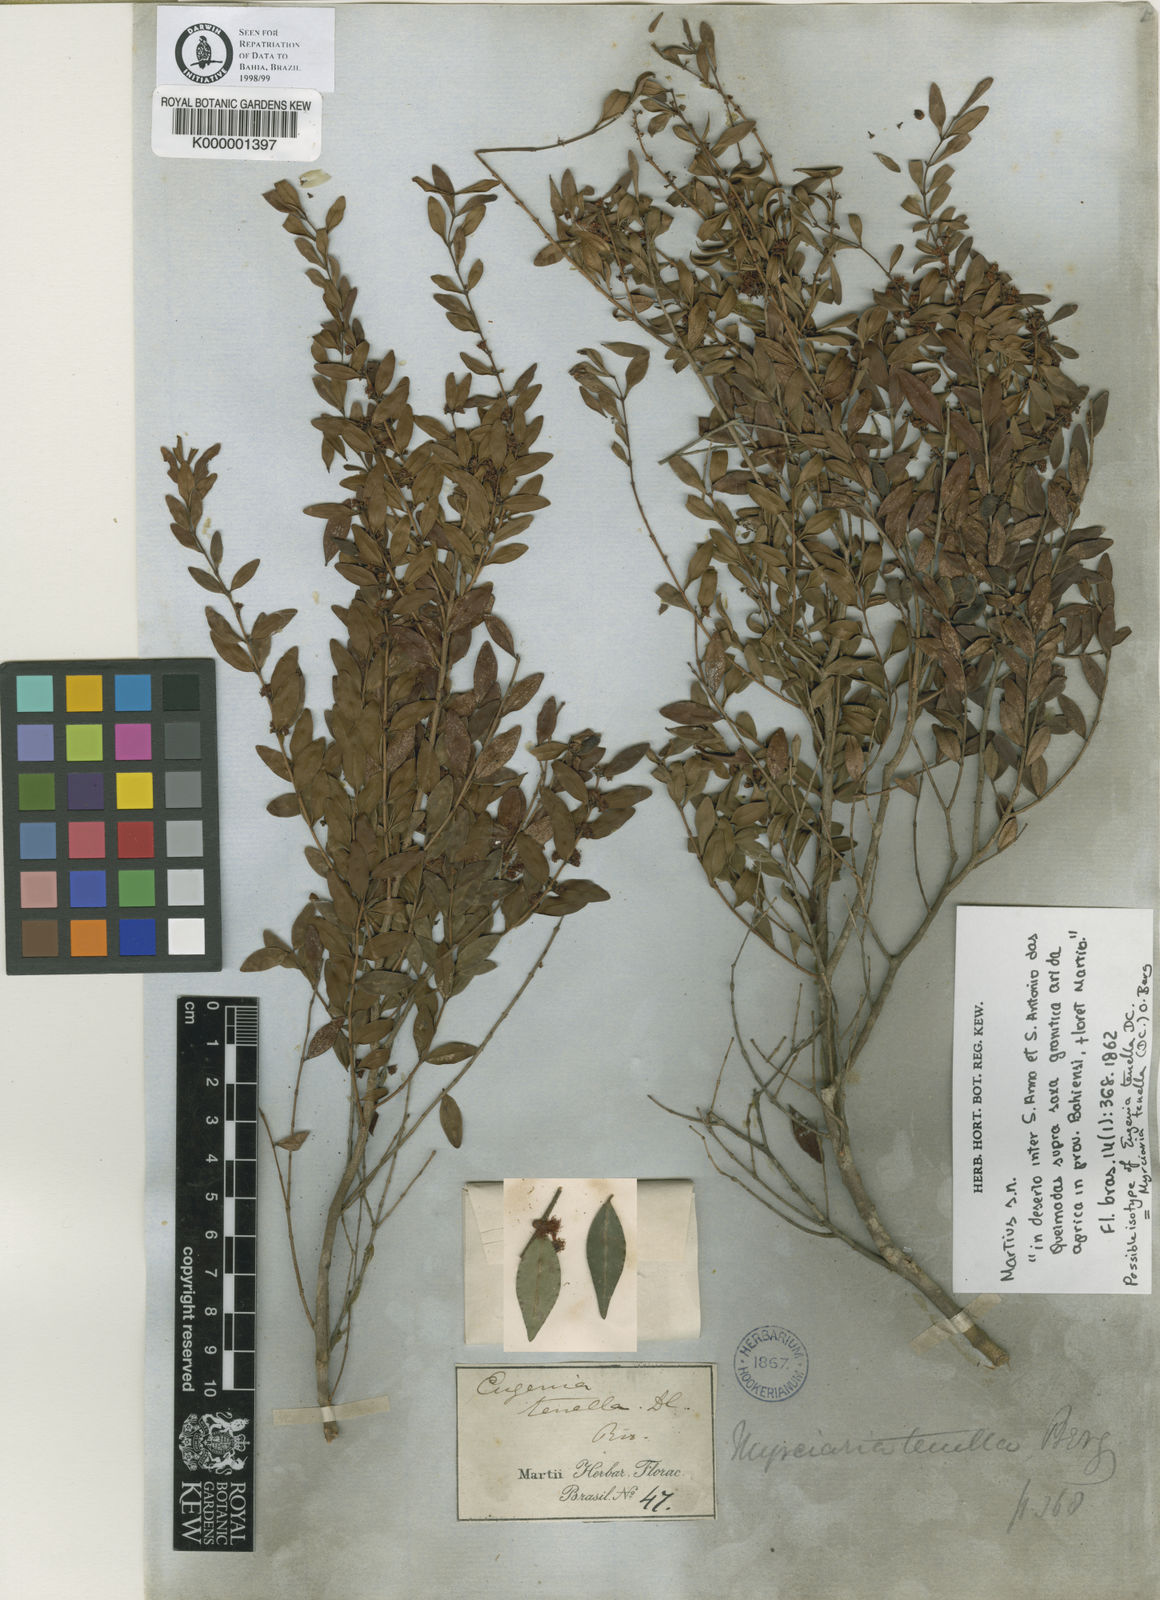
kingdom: Plantae
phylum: Tracheophyta
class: Magnoliopsida
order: Myrtales
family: Myrtaceae
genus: Myrciaria
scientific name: Myrciaria tenella
